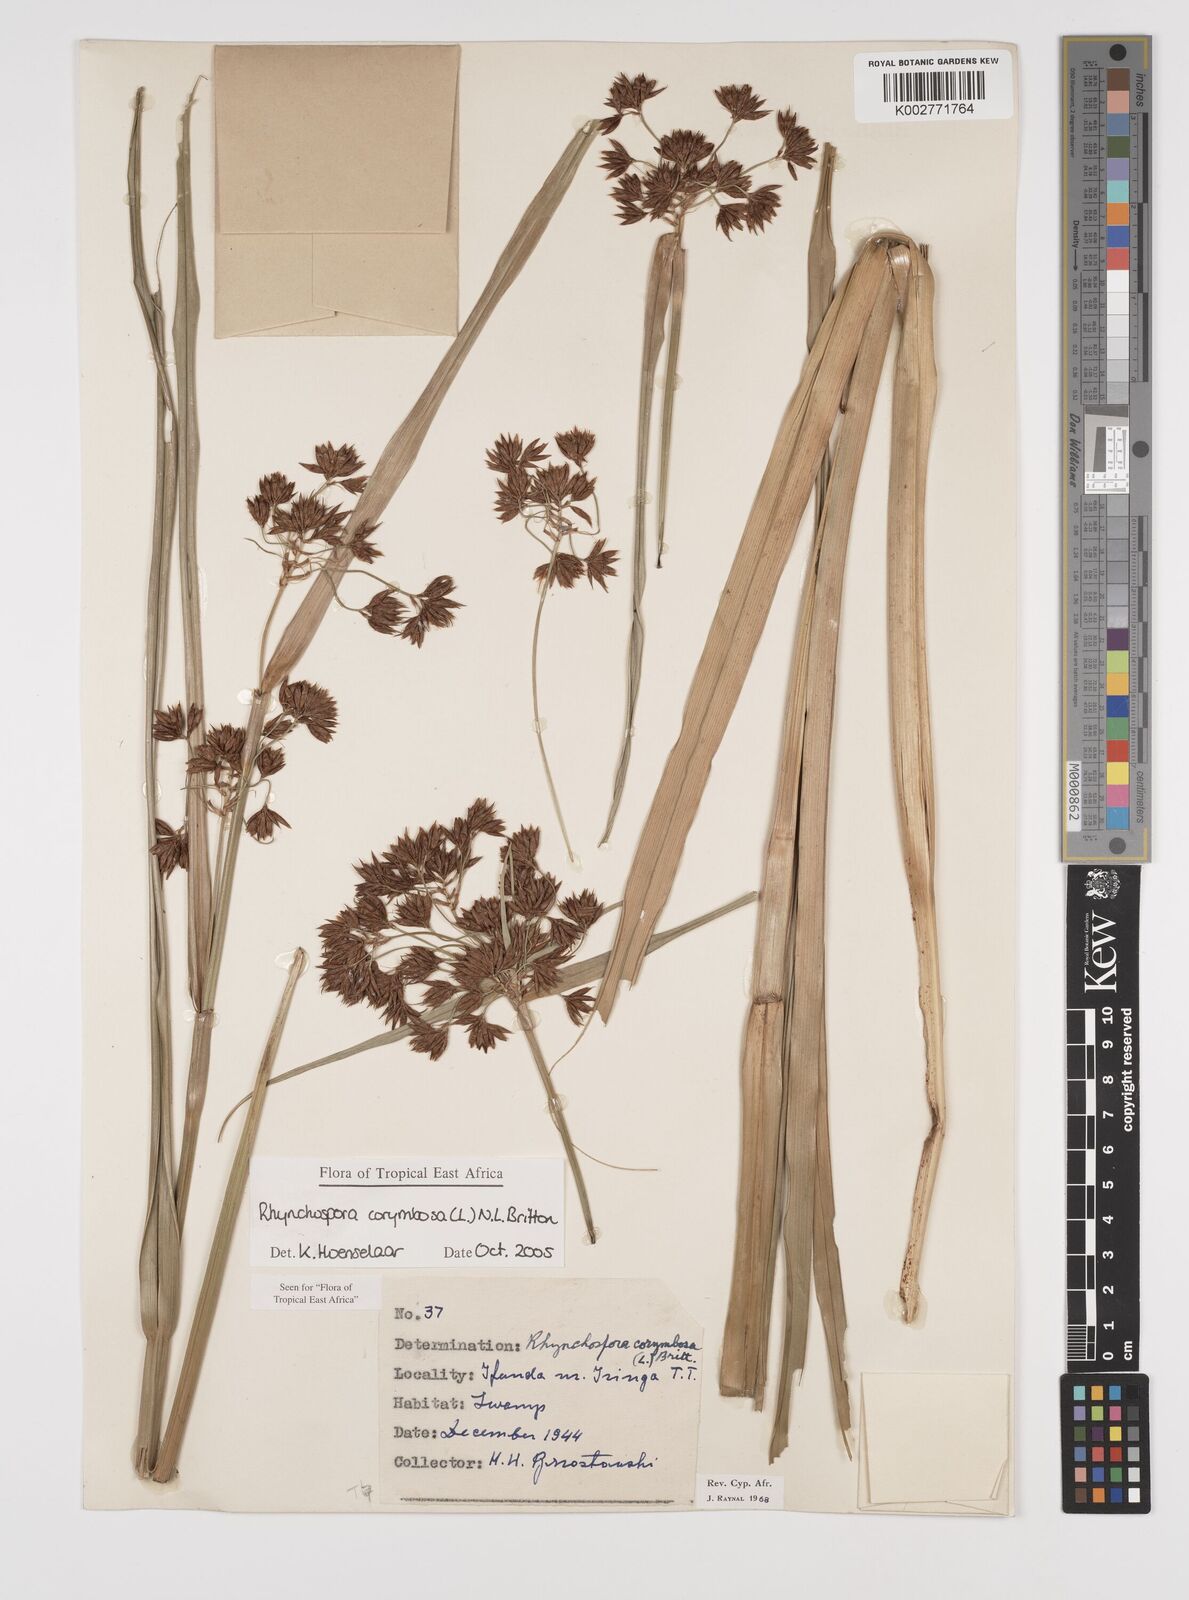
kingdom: Plantae
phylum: Tracheophyta
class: Liliopsida
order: Poales
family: Cyperaceae
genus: Rhynchospora
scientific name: Rhynchospora corymbosa
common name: Golden beak sedge
